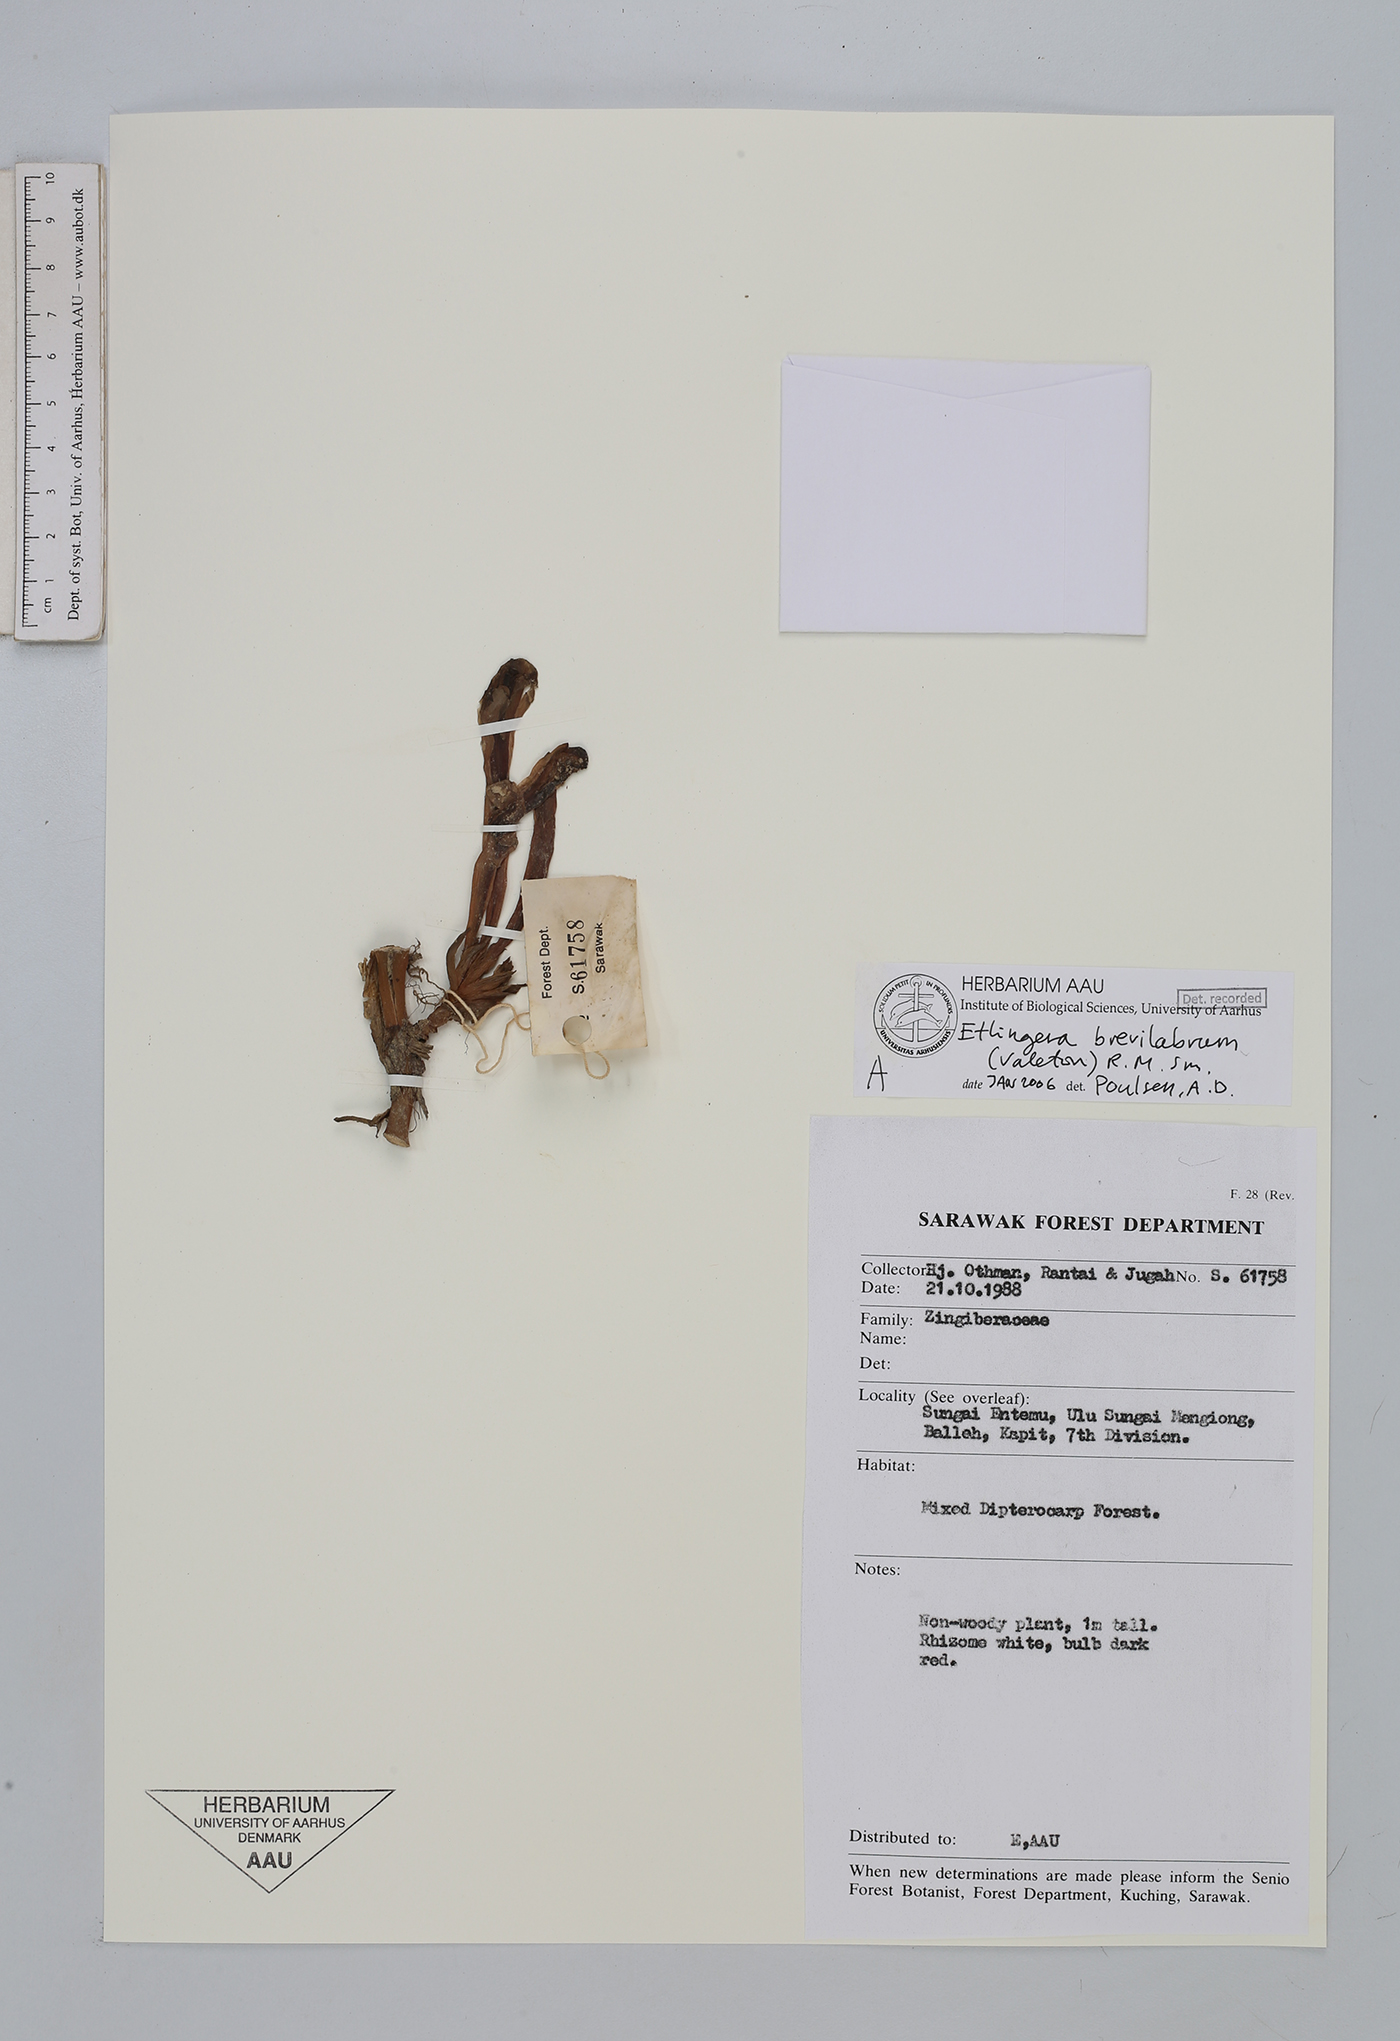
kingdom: Plantae
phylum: Tracheophyta
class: Liliopsida
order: Zingiberales
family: Zingiberaceae
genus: Etlingera
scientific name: Etlingera brevilabrum
